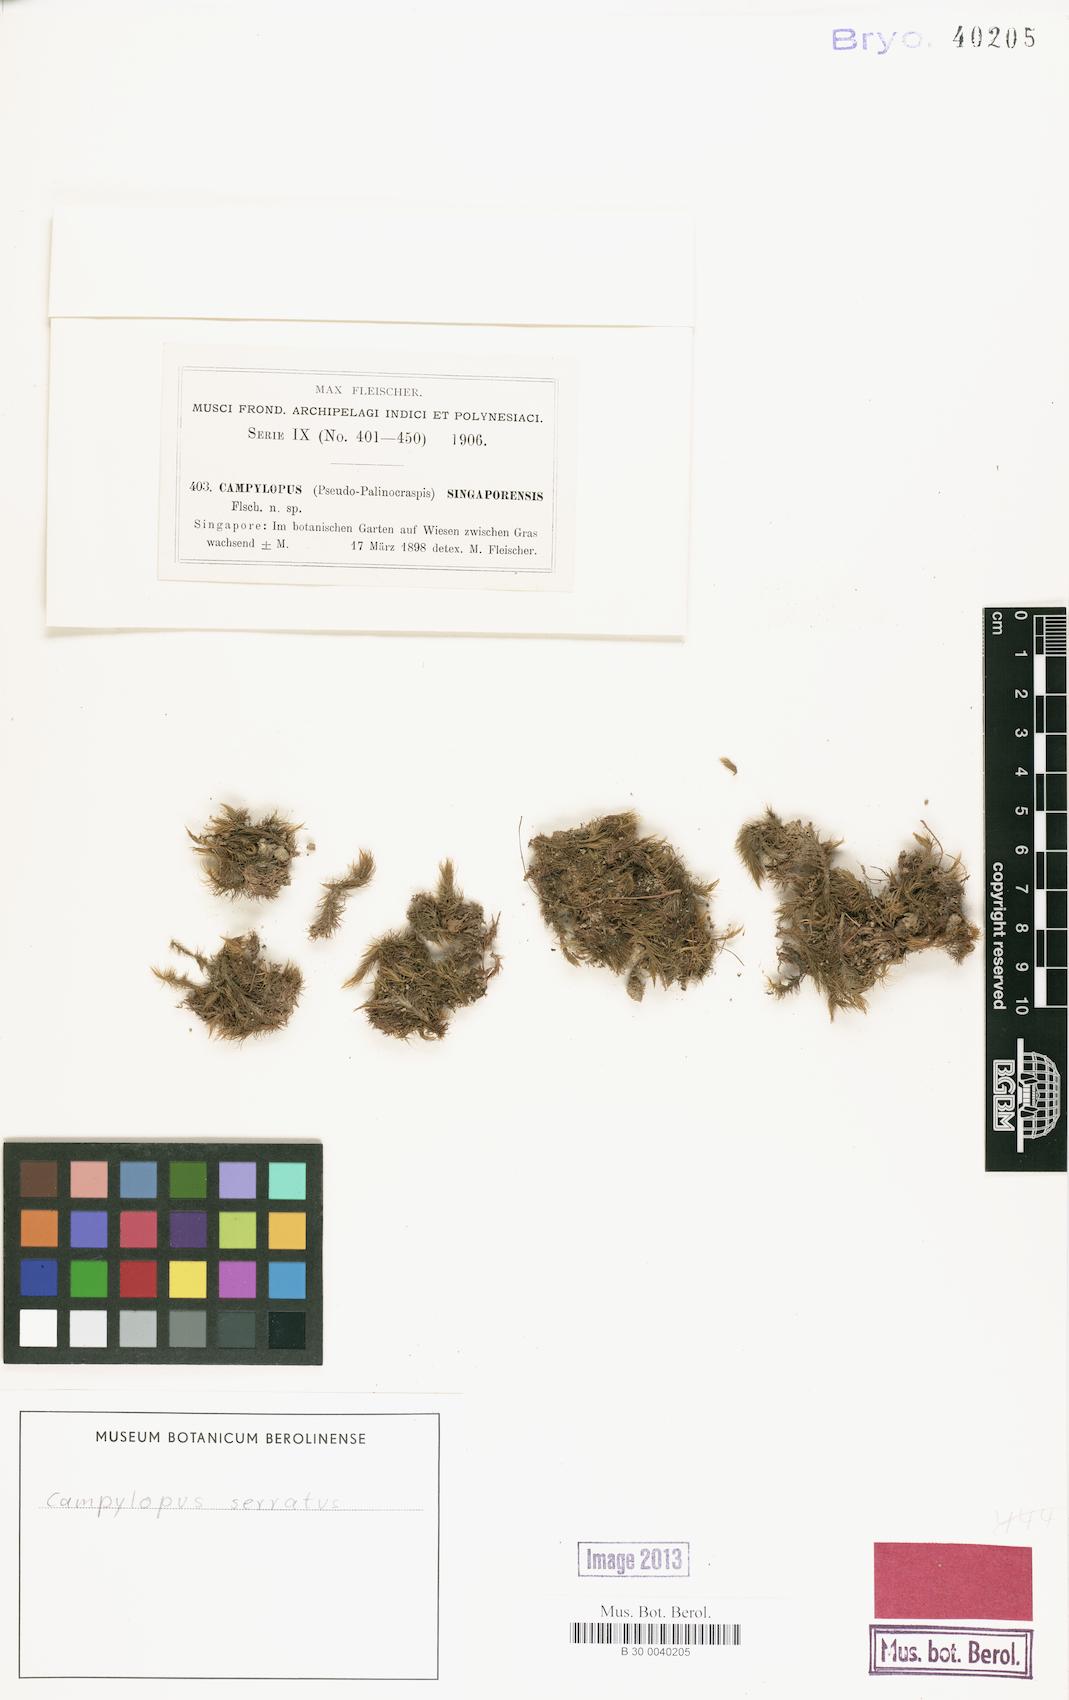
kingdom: Plantae
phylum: Bryophyta
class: Bryopsida
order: Dicranales
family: Leucobryaceae
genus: Campylopus
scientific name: Campylopus serratus
